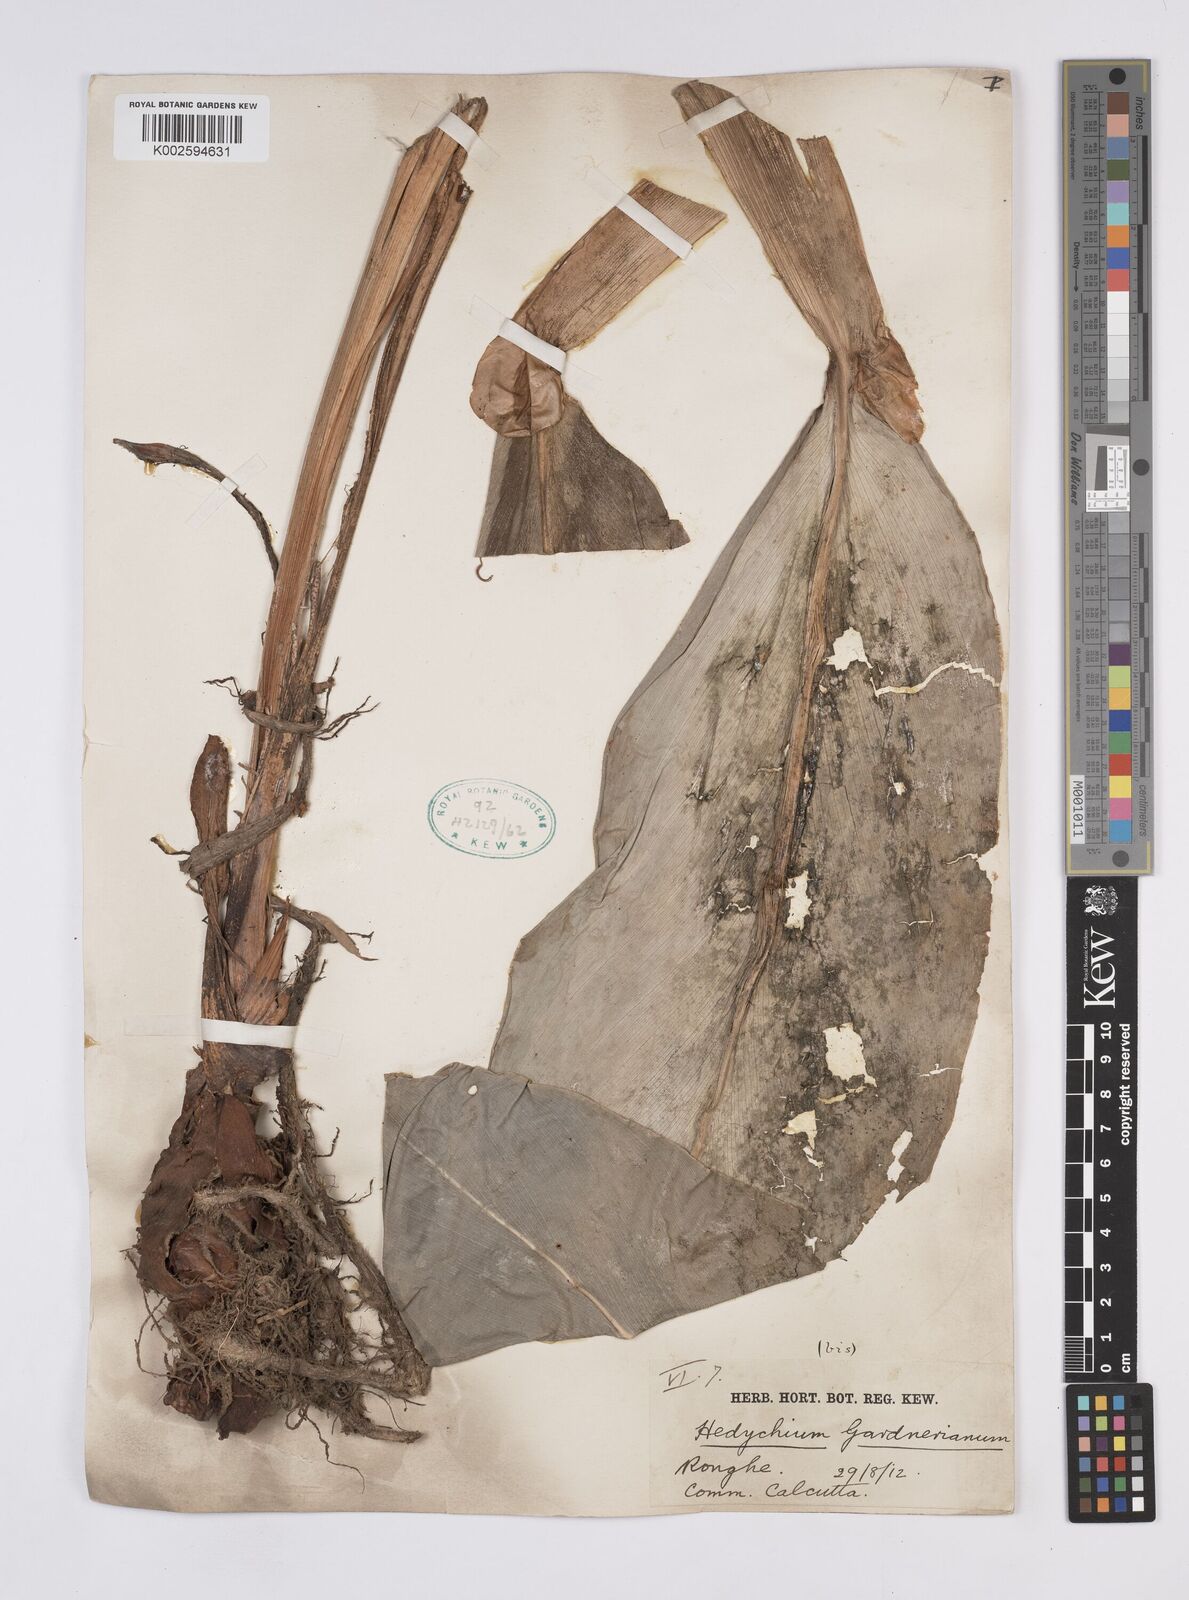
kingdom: Plantae
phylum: Tracheophyta
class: Liliopsida
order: Zingiberales
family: Zingiberaceae
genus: Hedychium
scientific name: Hedychium gardnerianum
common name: Himalayan ginger
